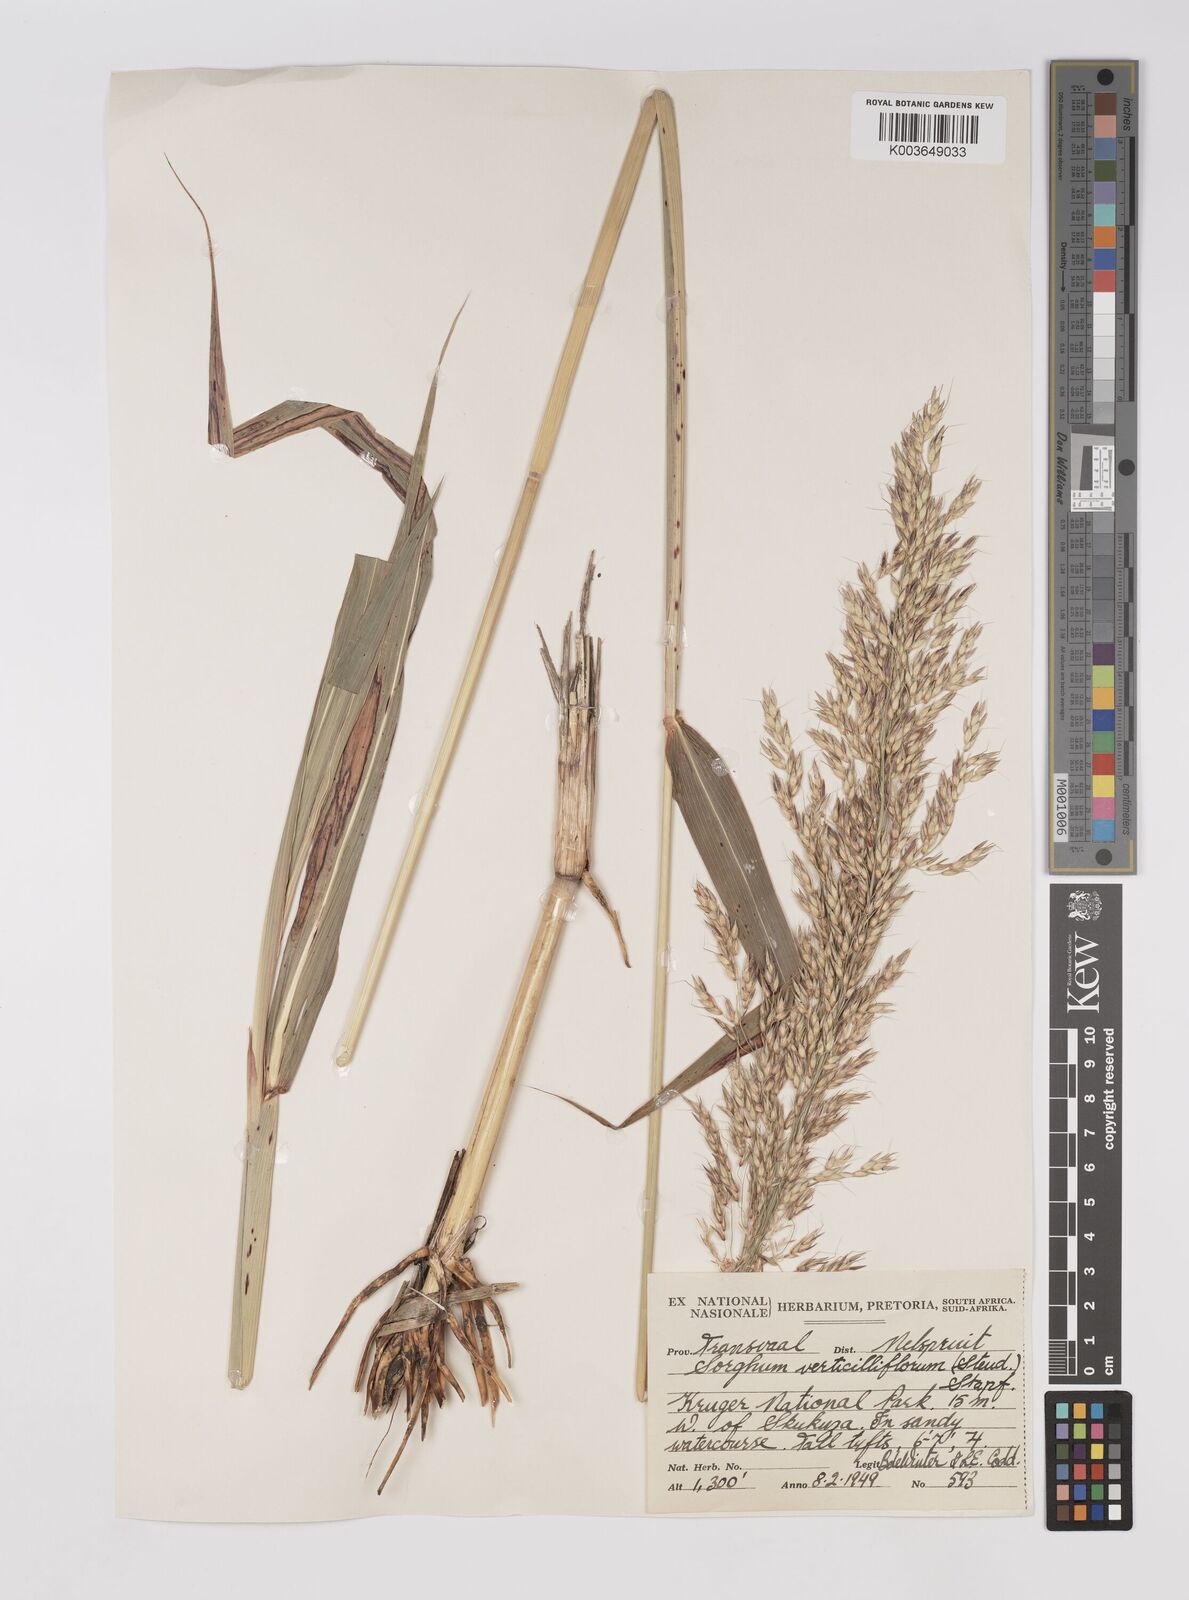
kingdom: Plantae
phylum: Tracheophyta
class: Liliopsida
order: Poales
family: Poaceae
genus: Sorghum
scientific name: Sorghum arundinaceum
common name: Sorghum
